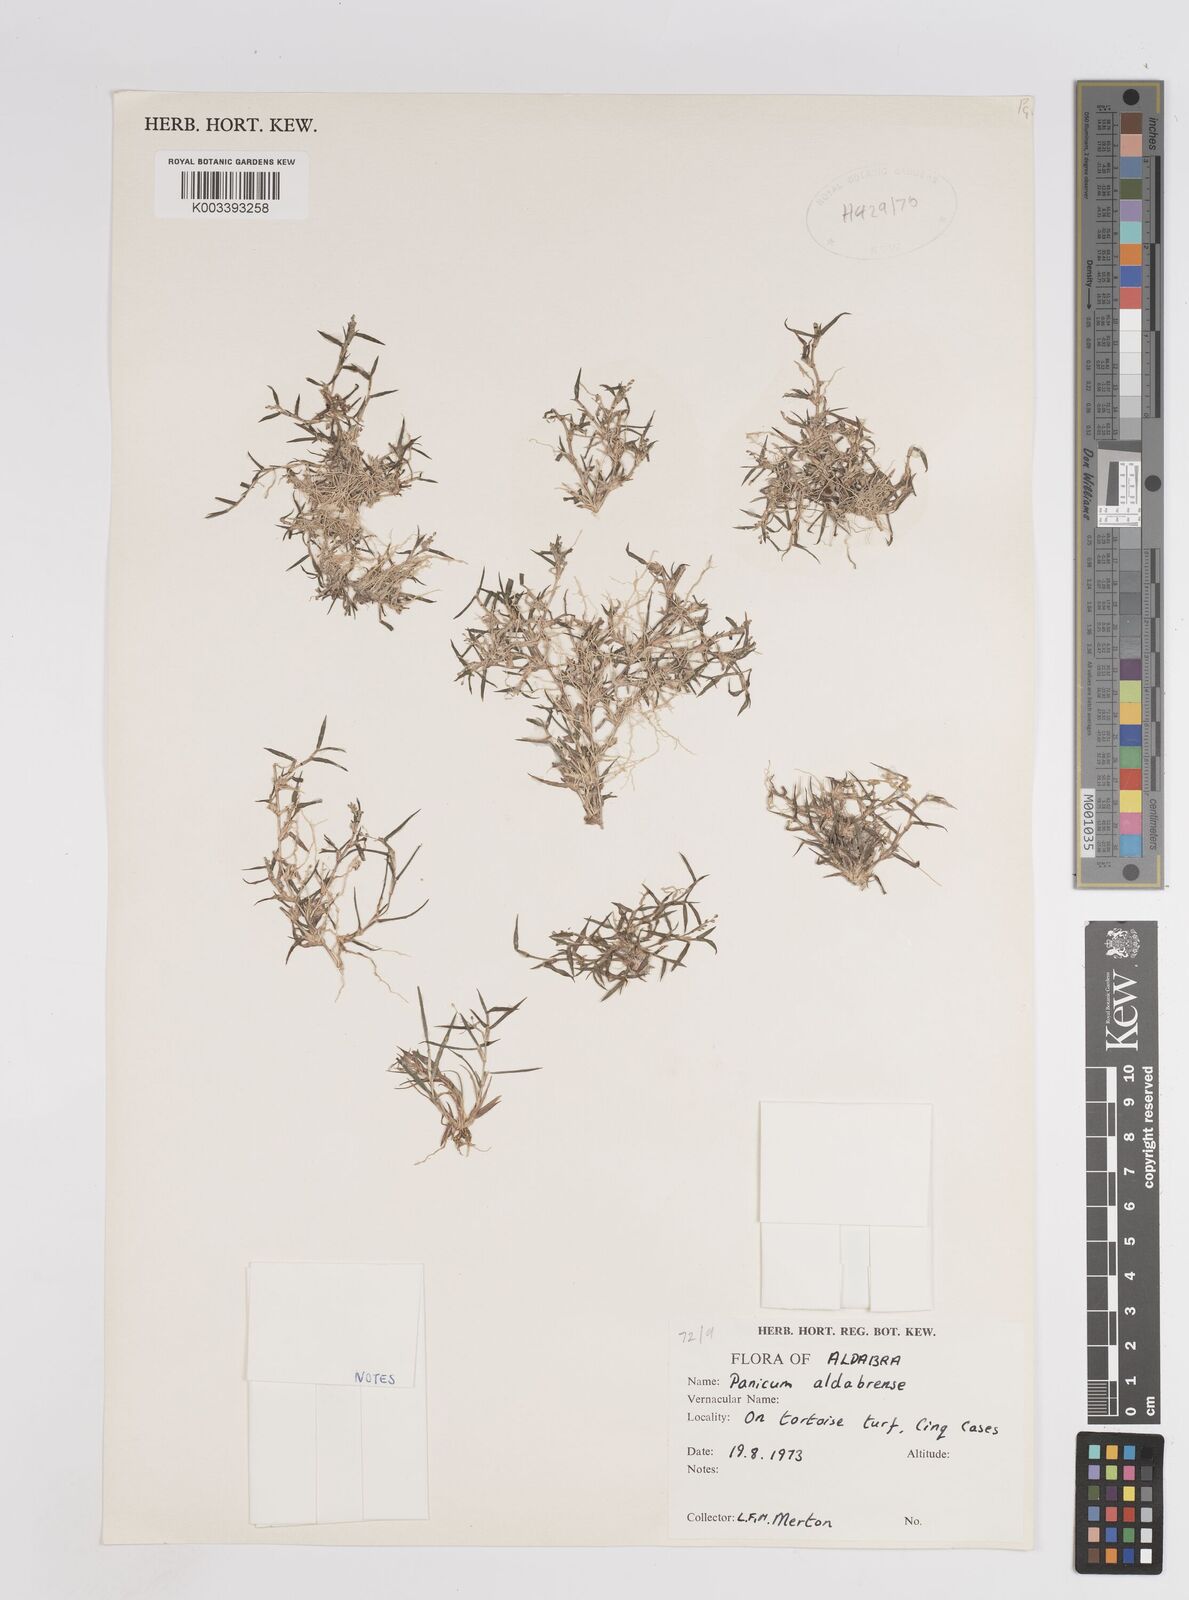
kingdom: Plantae
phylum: Tracheophyta
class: Liliopsida
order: Poales
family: Poaceae
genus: Panicum
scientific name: Panicum aldabrense
